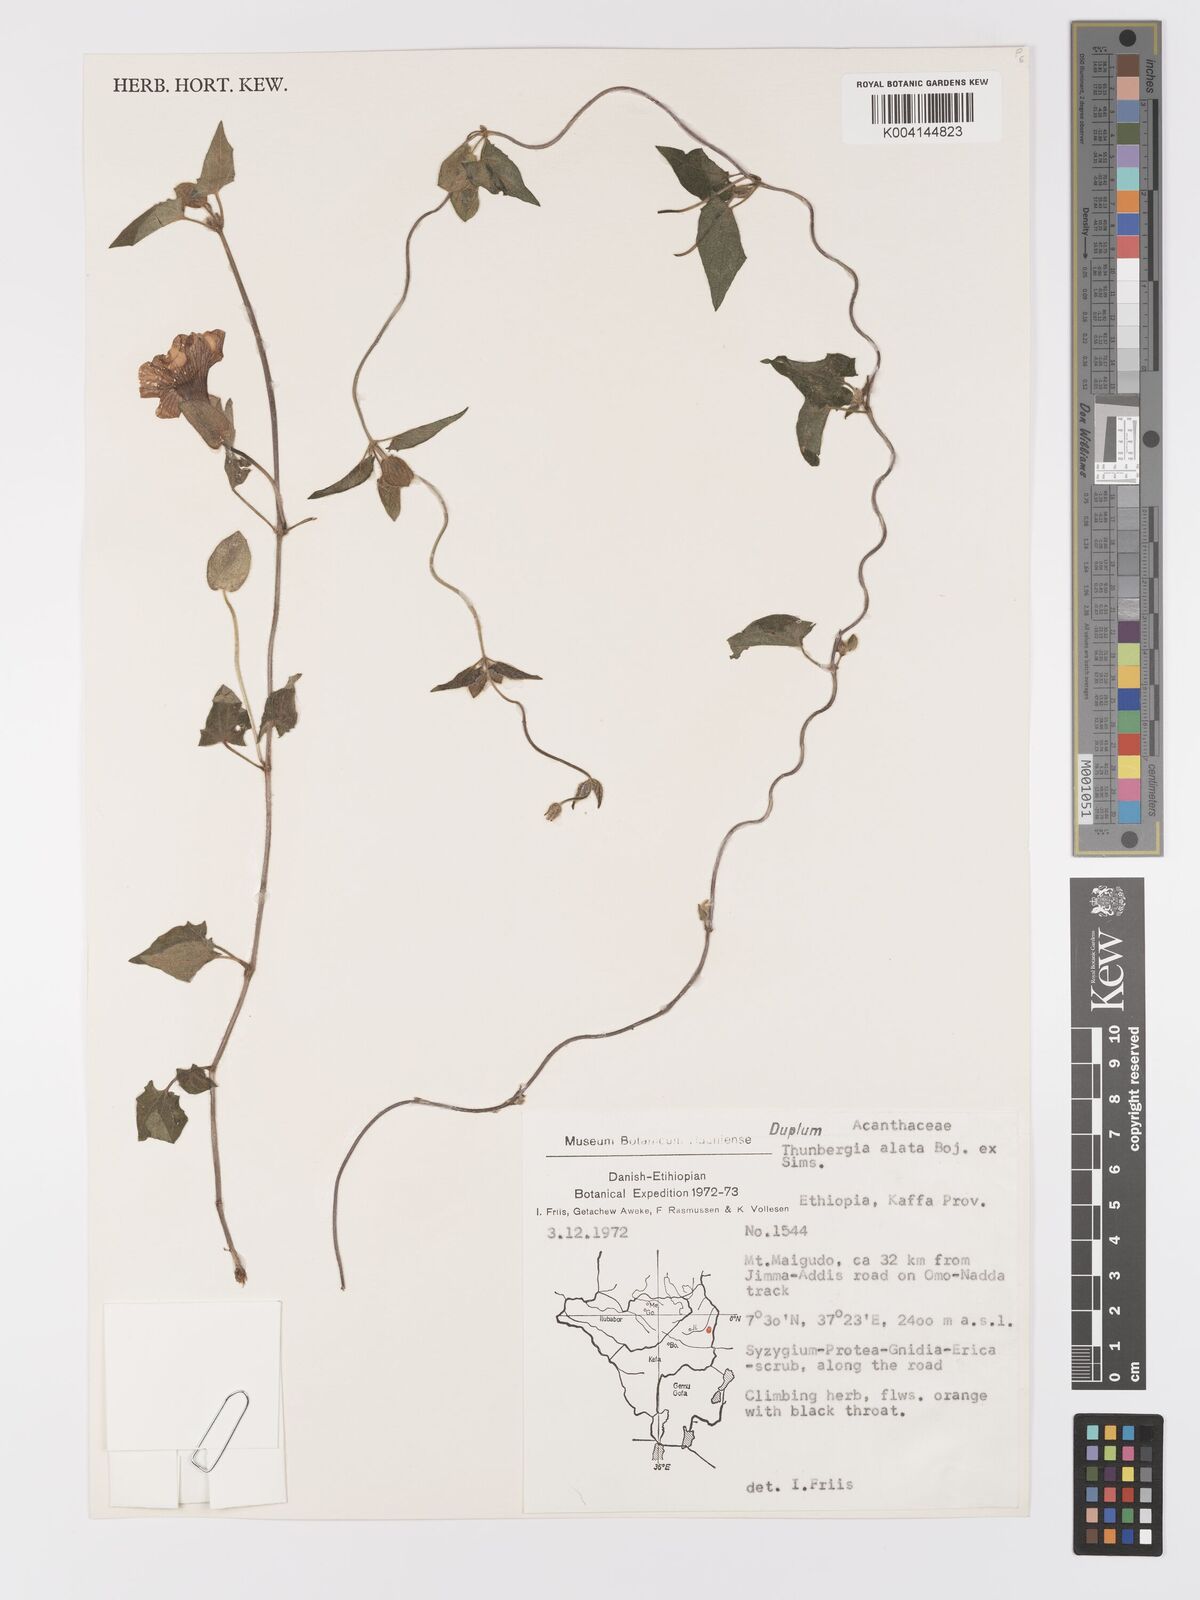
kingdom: Plantae
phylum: Tracheophyta
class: Magnoliopsida
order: Lamiales
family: Acanthaceae
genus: Thunbergia
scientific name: Thunbergia alata
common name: Blackeyed susan vine
